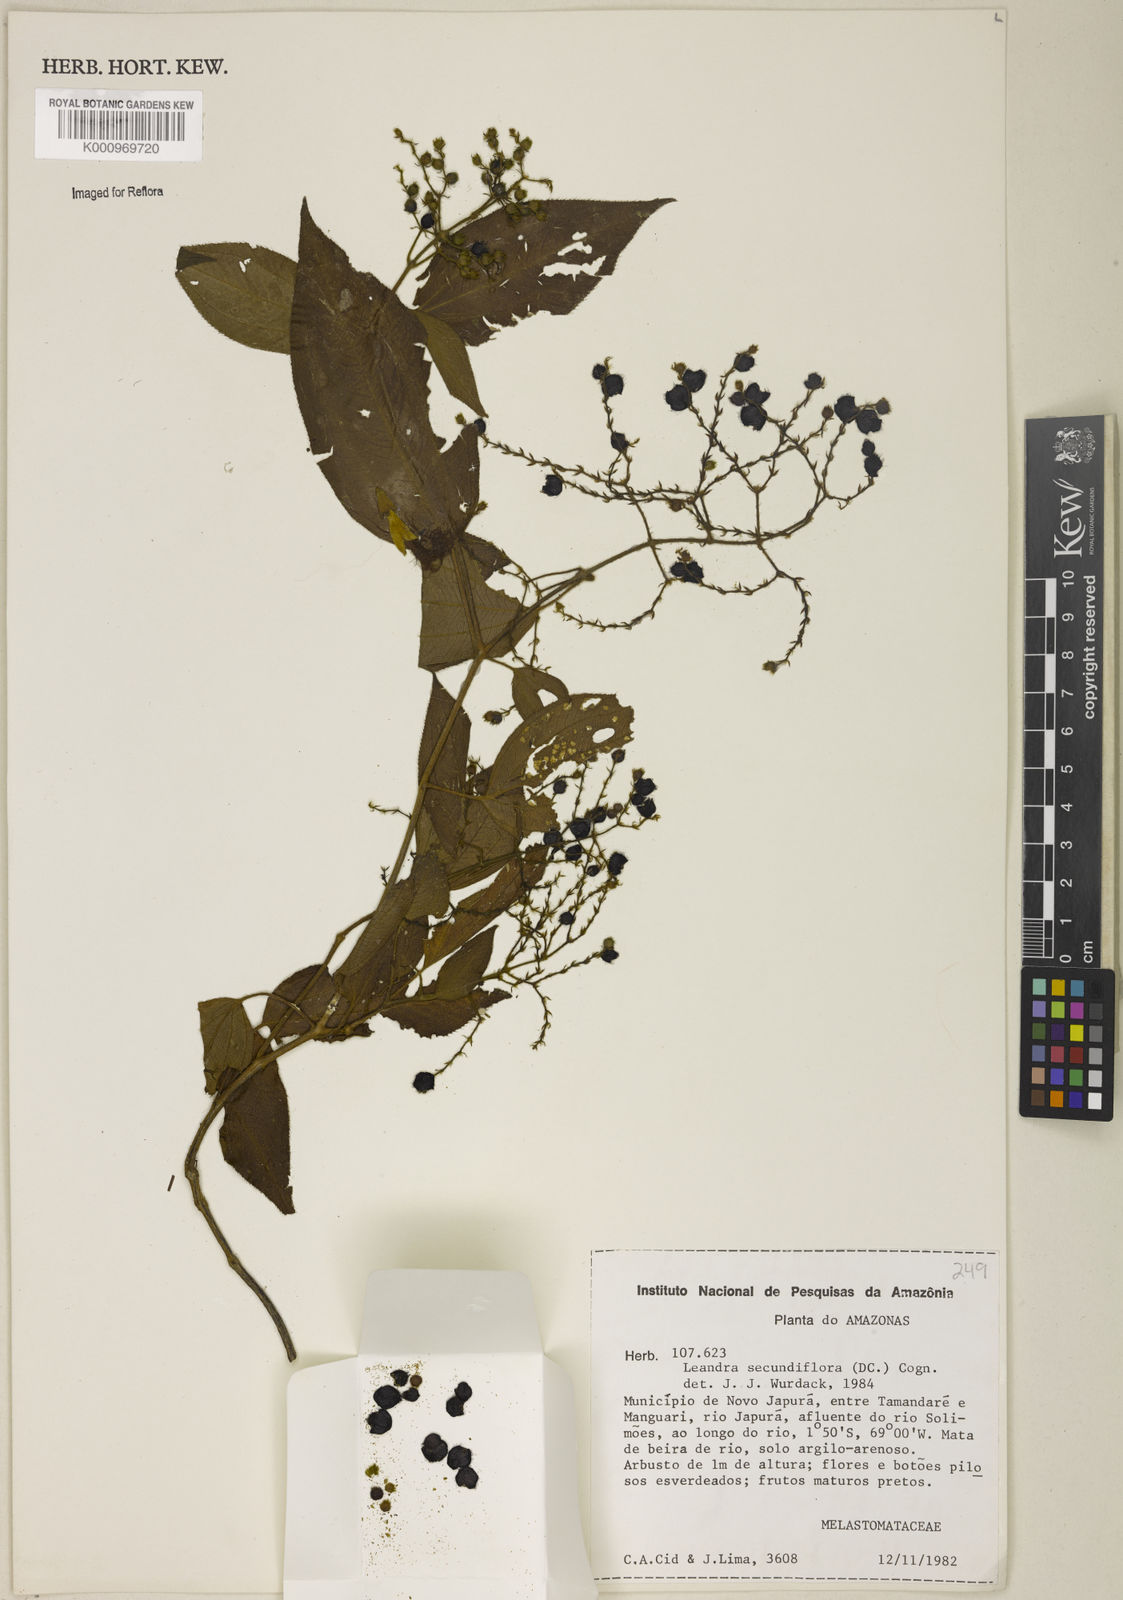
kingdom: Plantae
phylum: Tracheophyta
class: Magnoliopsida
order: Myrtales
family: Melastomataceae
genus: Miconia
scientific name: Miconia neosecundiflora
